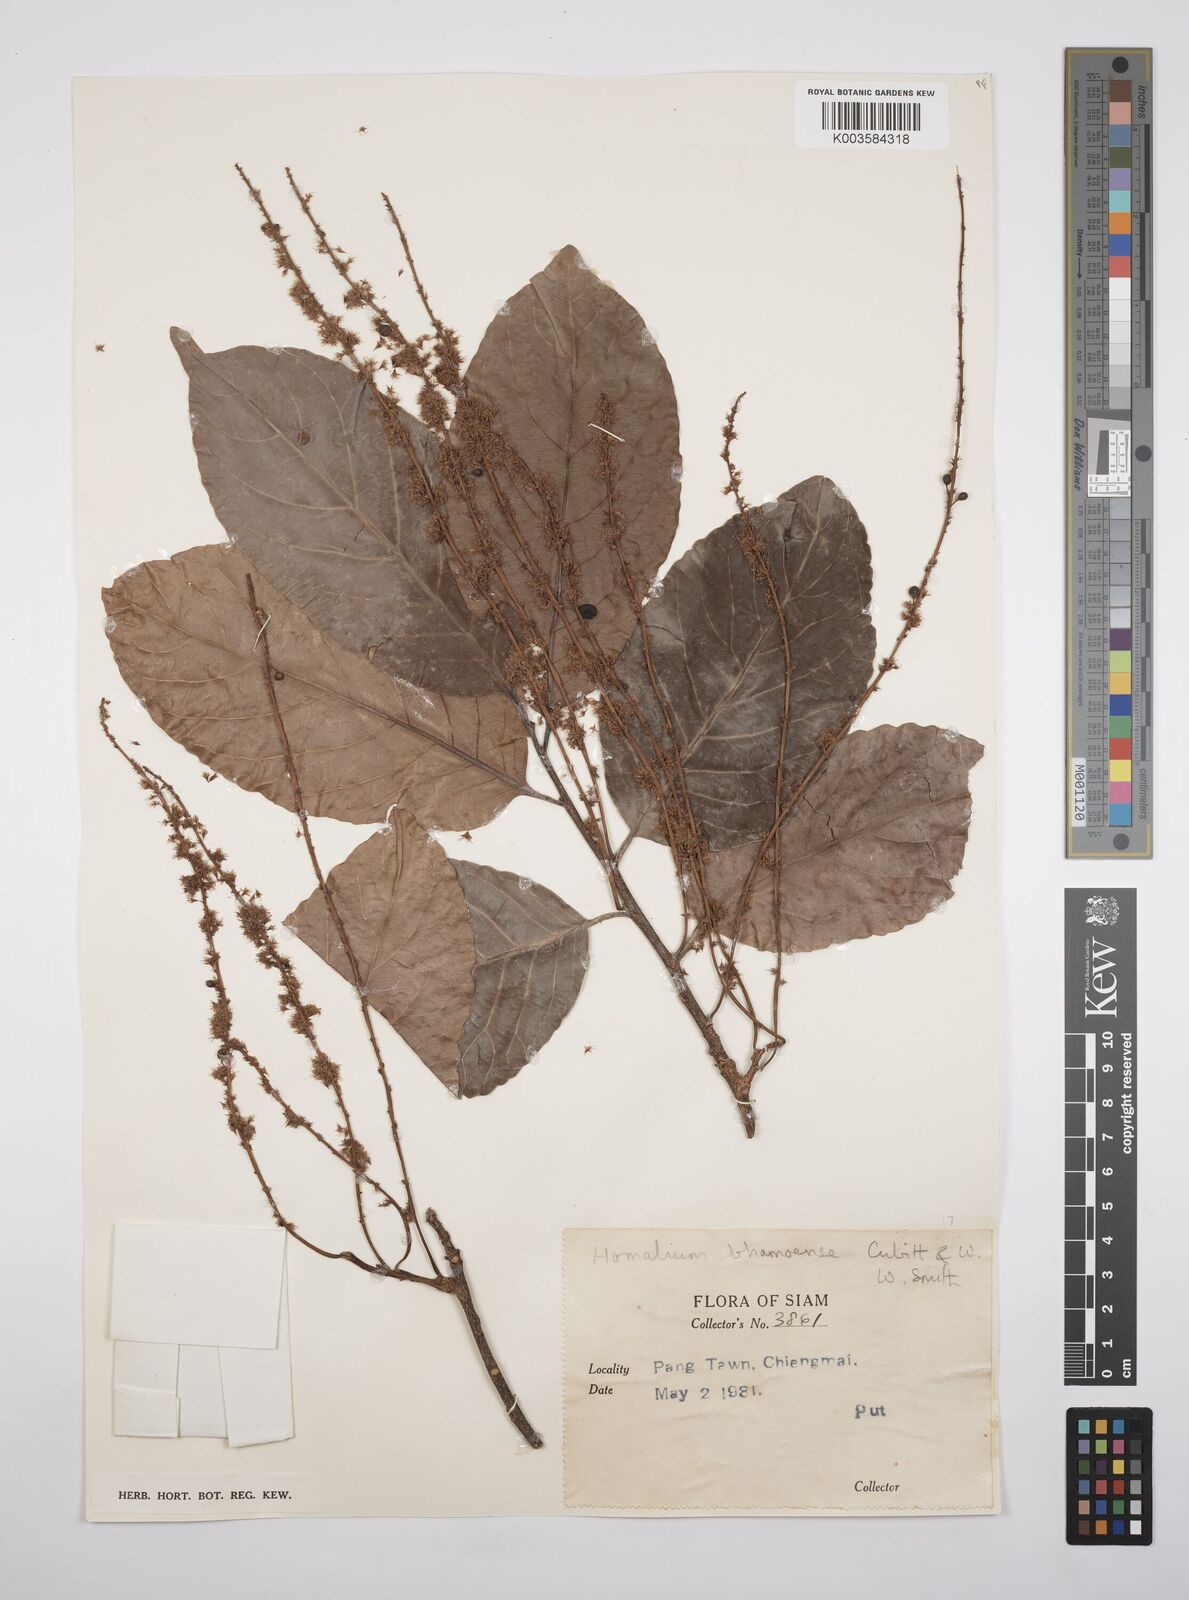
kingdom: Plantae
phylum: Tracheophyta
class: Magnoliopsida
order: Malpighiales
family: Salicaceae
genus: Homalium
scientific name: Homalium ceylanicum
